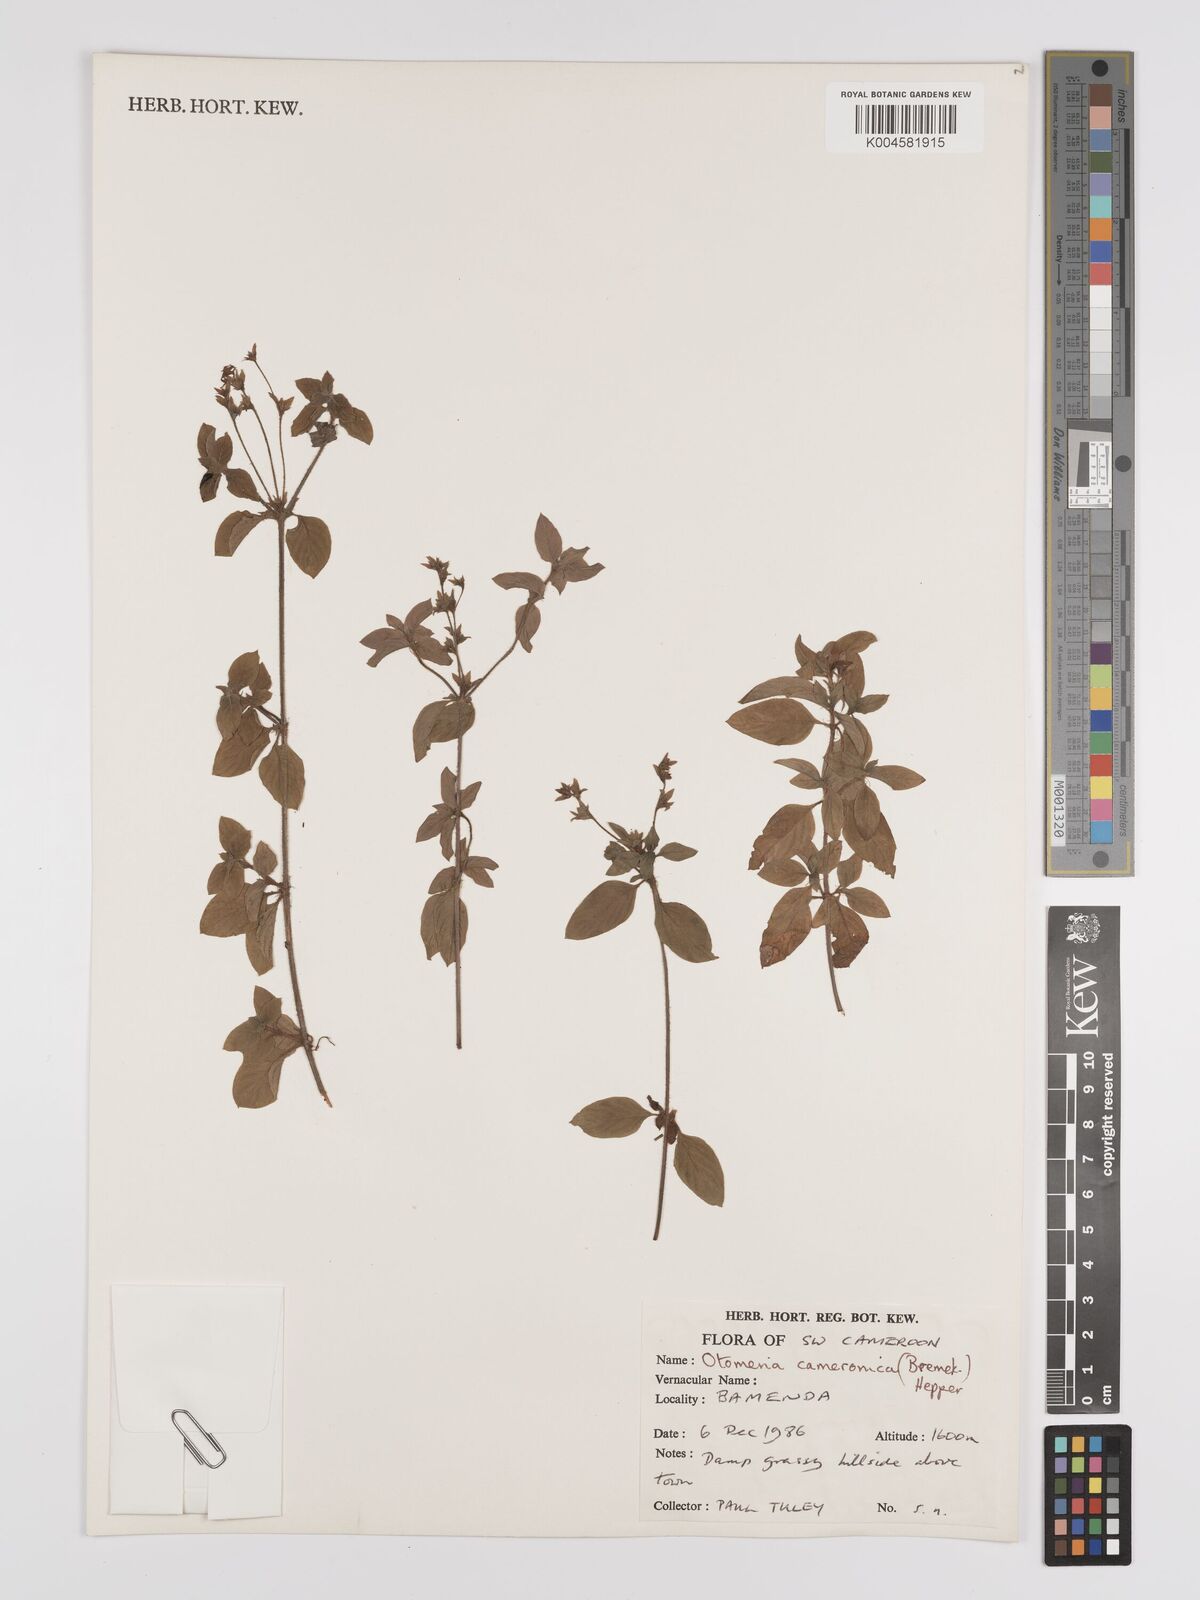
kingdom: Plantae
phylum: Tracheophyta
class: Magnoliopsida
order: Gentianales
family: Rubiaceae
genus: Otomeria
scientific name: Otomeria cameronica
